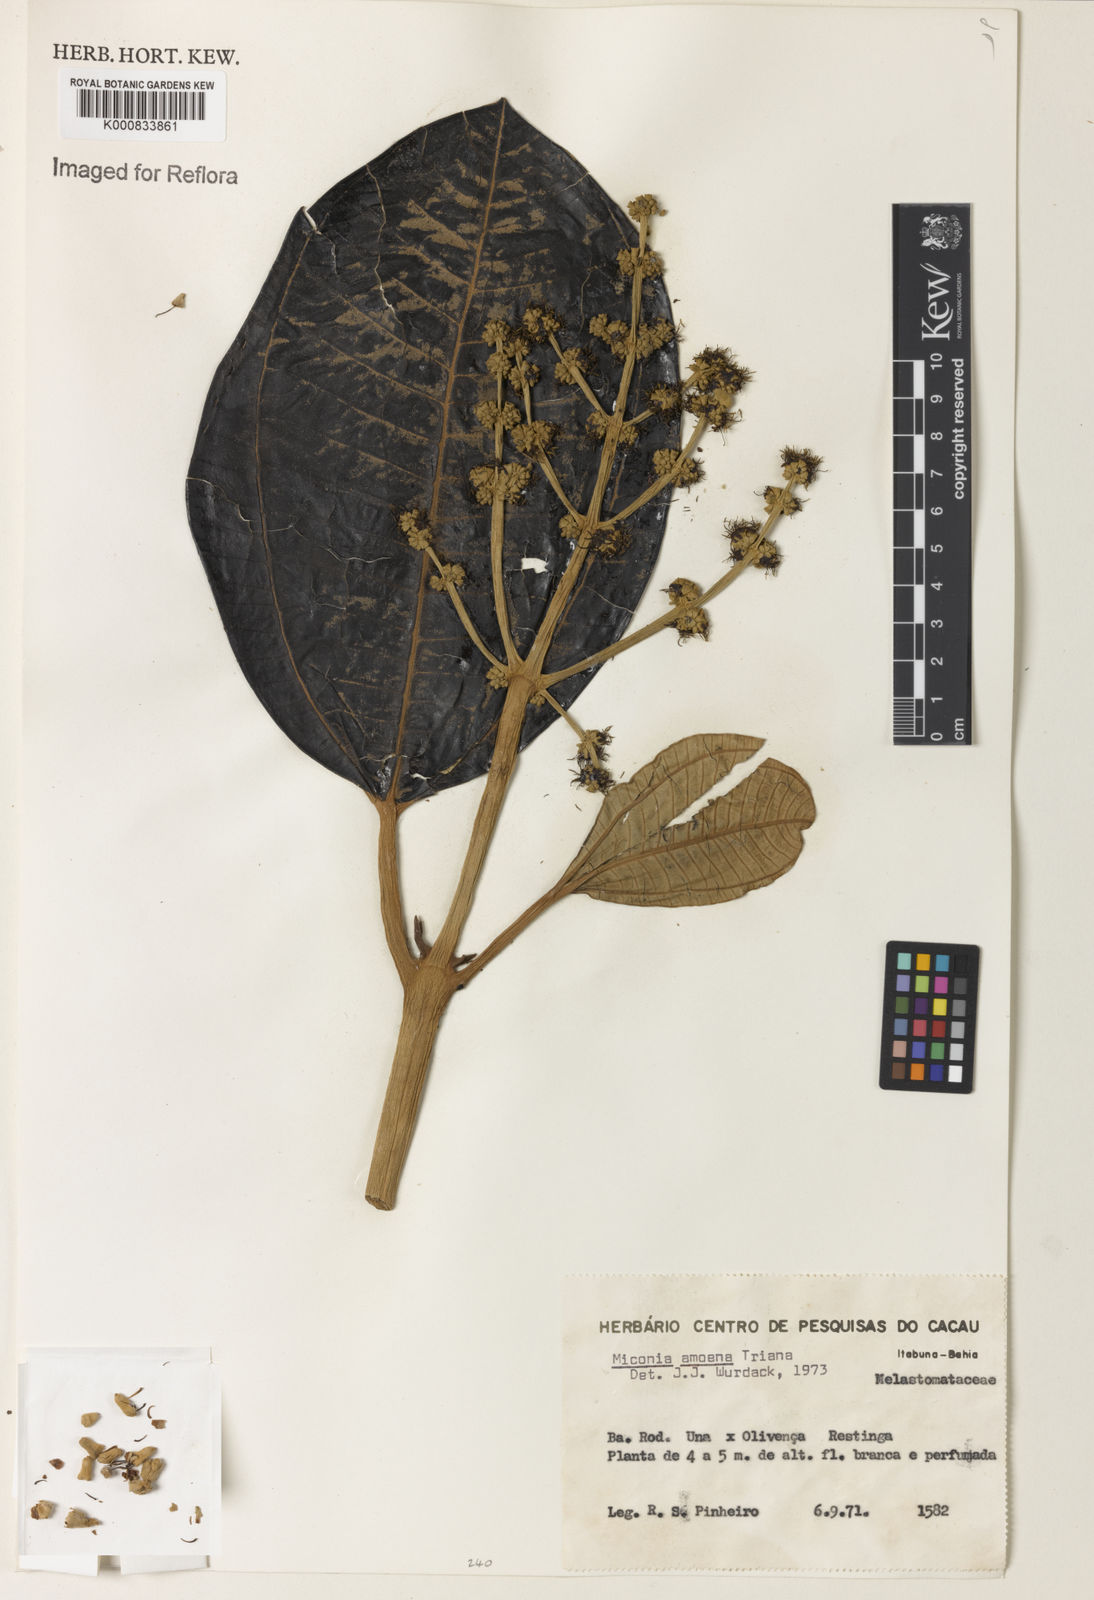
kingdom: Plantae
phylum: Tracheophyta
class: Magnoliopsida
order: Myrtales
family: Melastomataceae
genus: Miconia
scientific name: Miconia amoena
